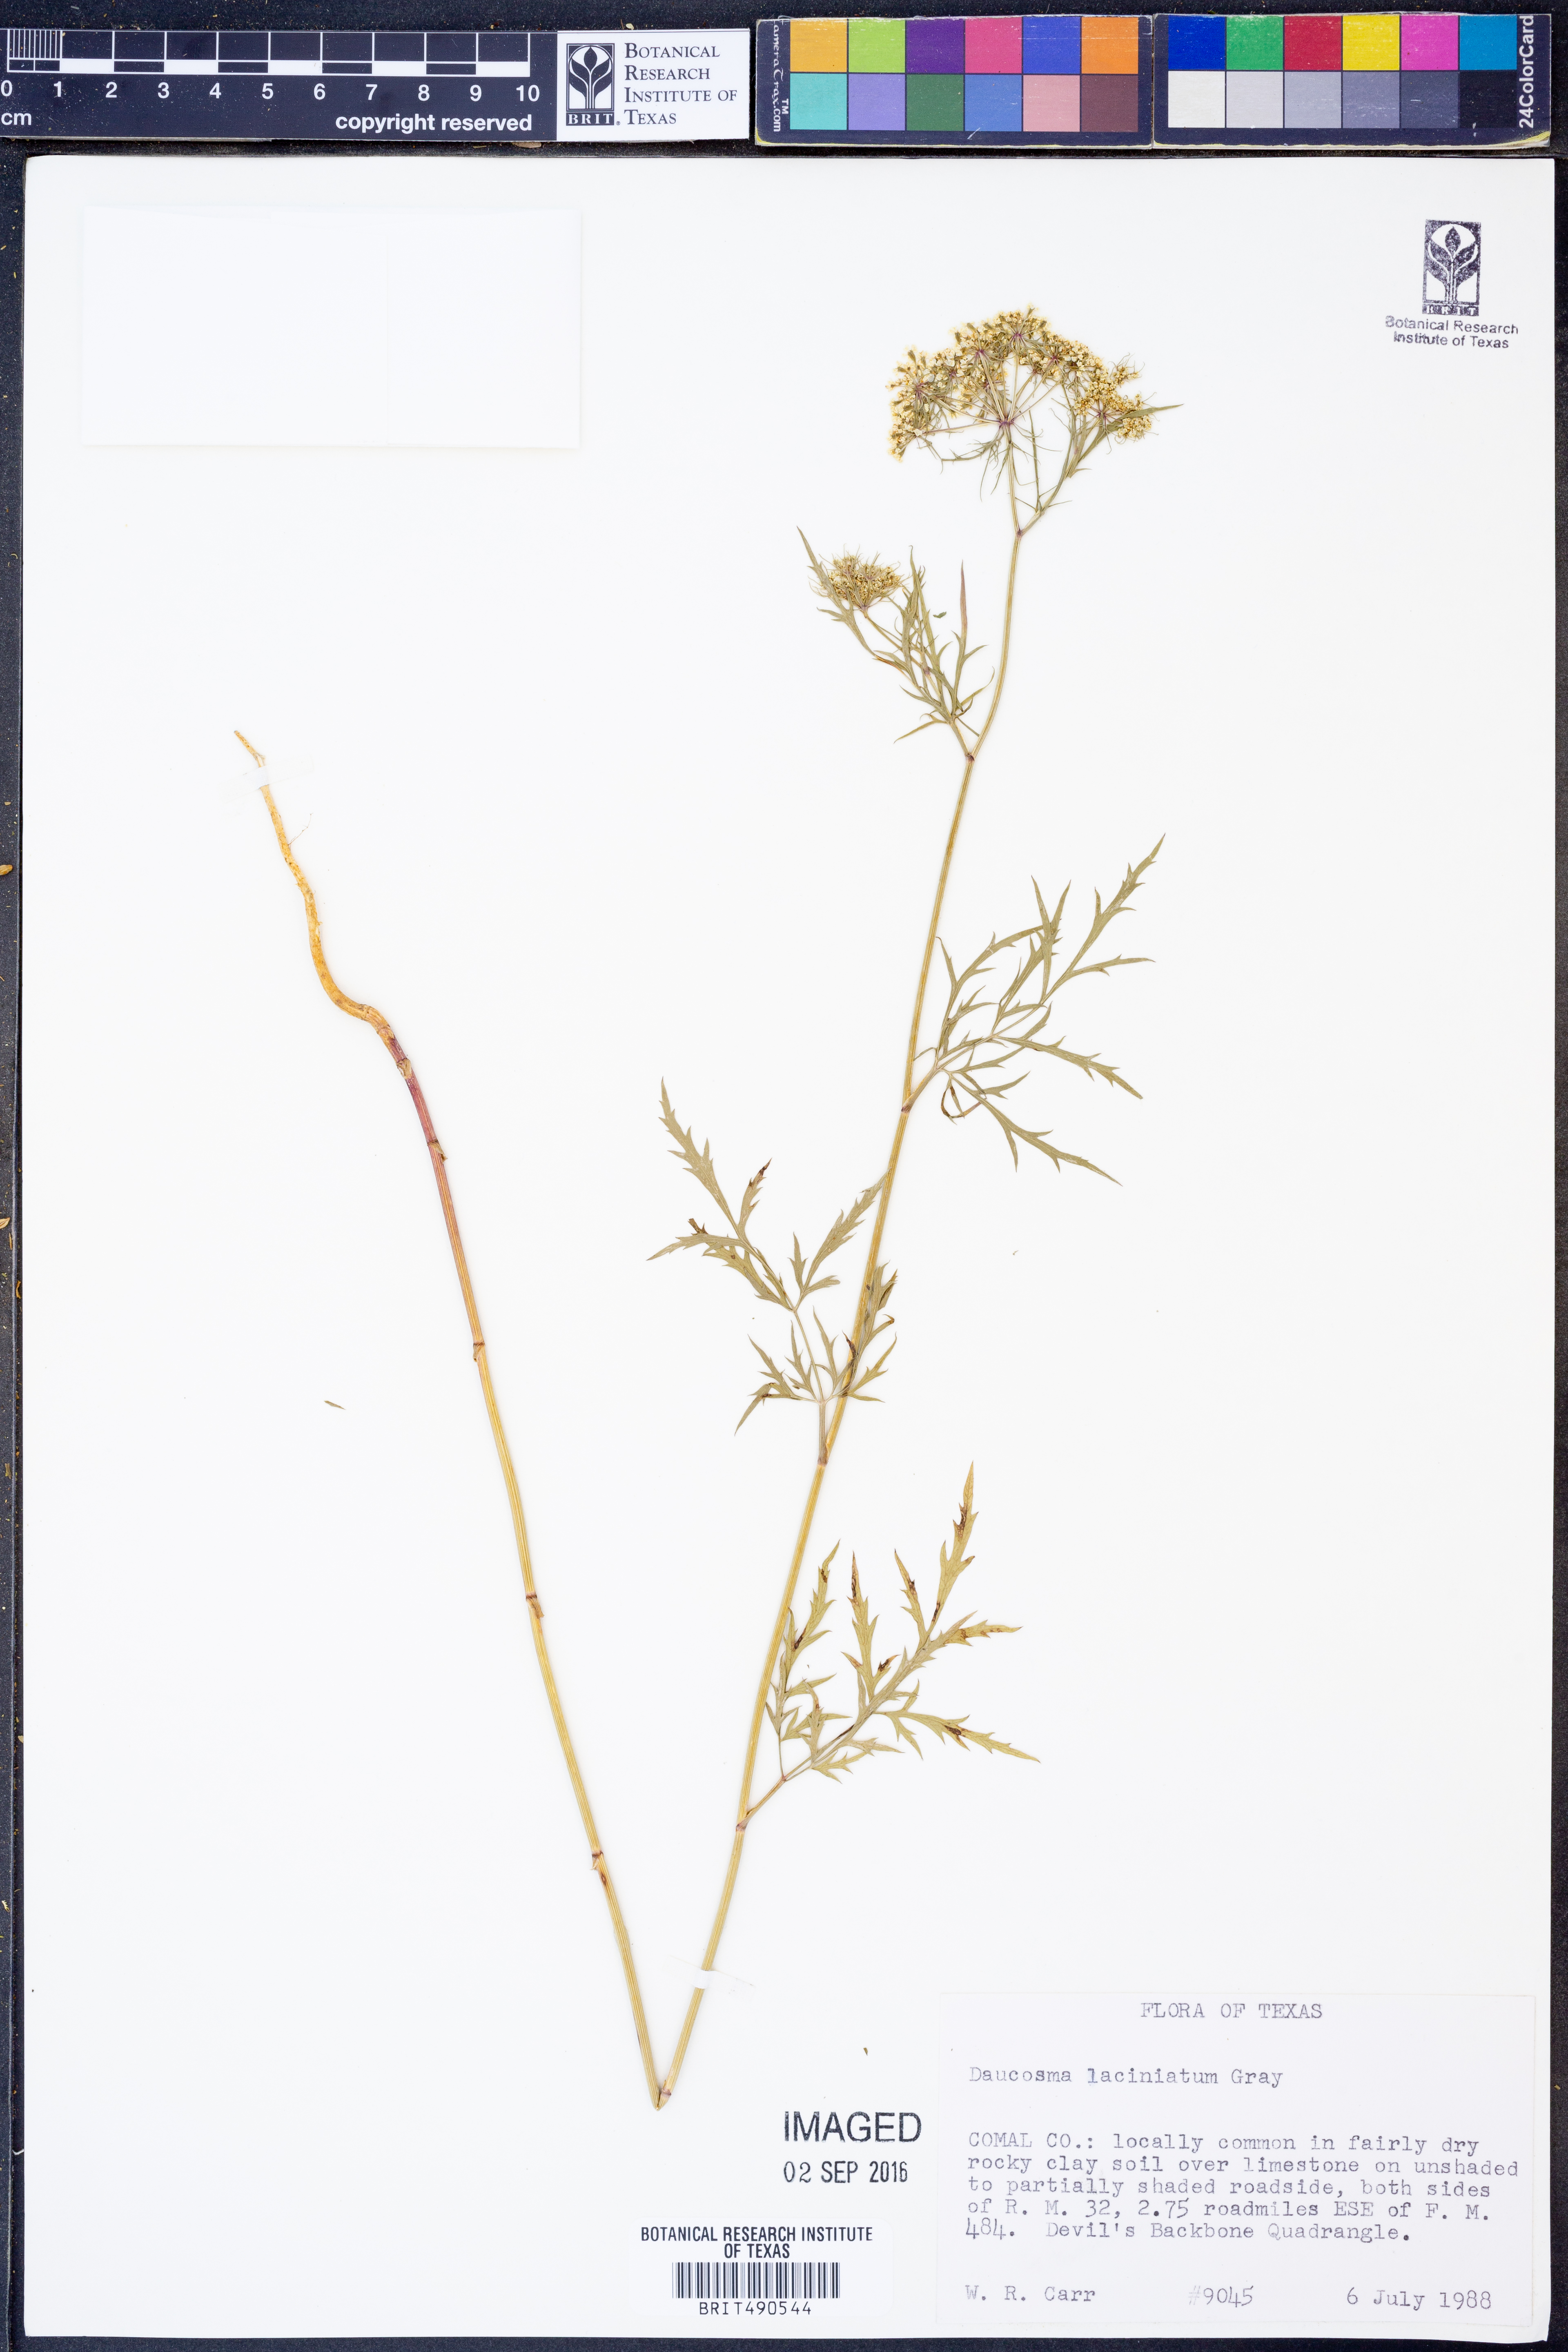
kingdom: Plantae
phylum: Tracheophyta
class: Magnoliopsida
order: Apiales
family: Apiaceae
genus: Daucosma
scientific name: Daucosma laciniatum
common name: Meadow-parasol
